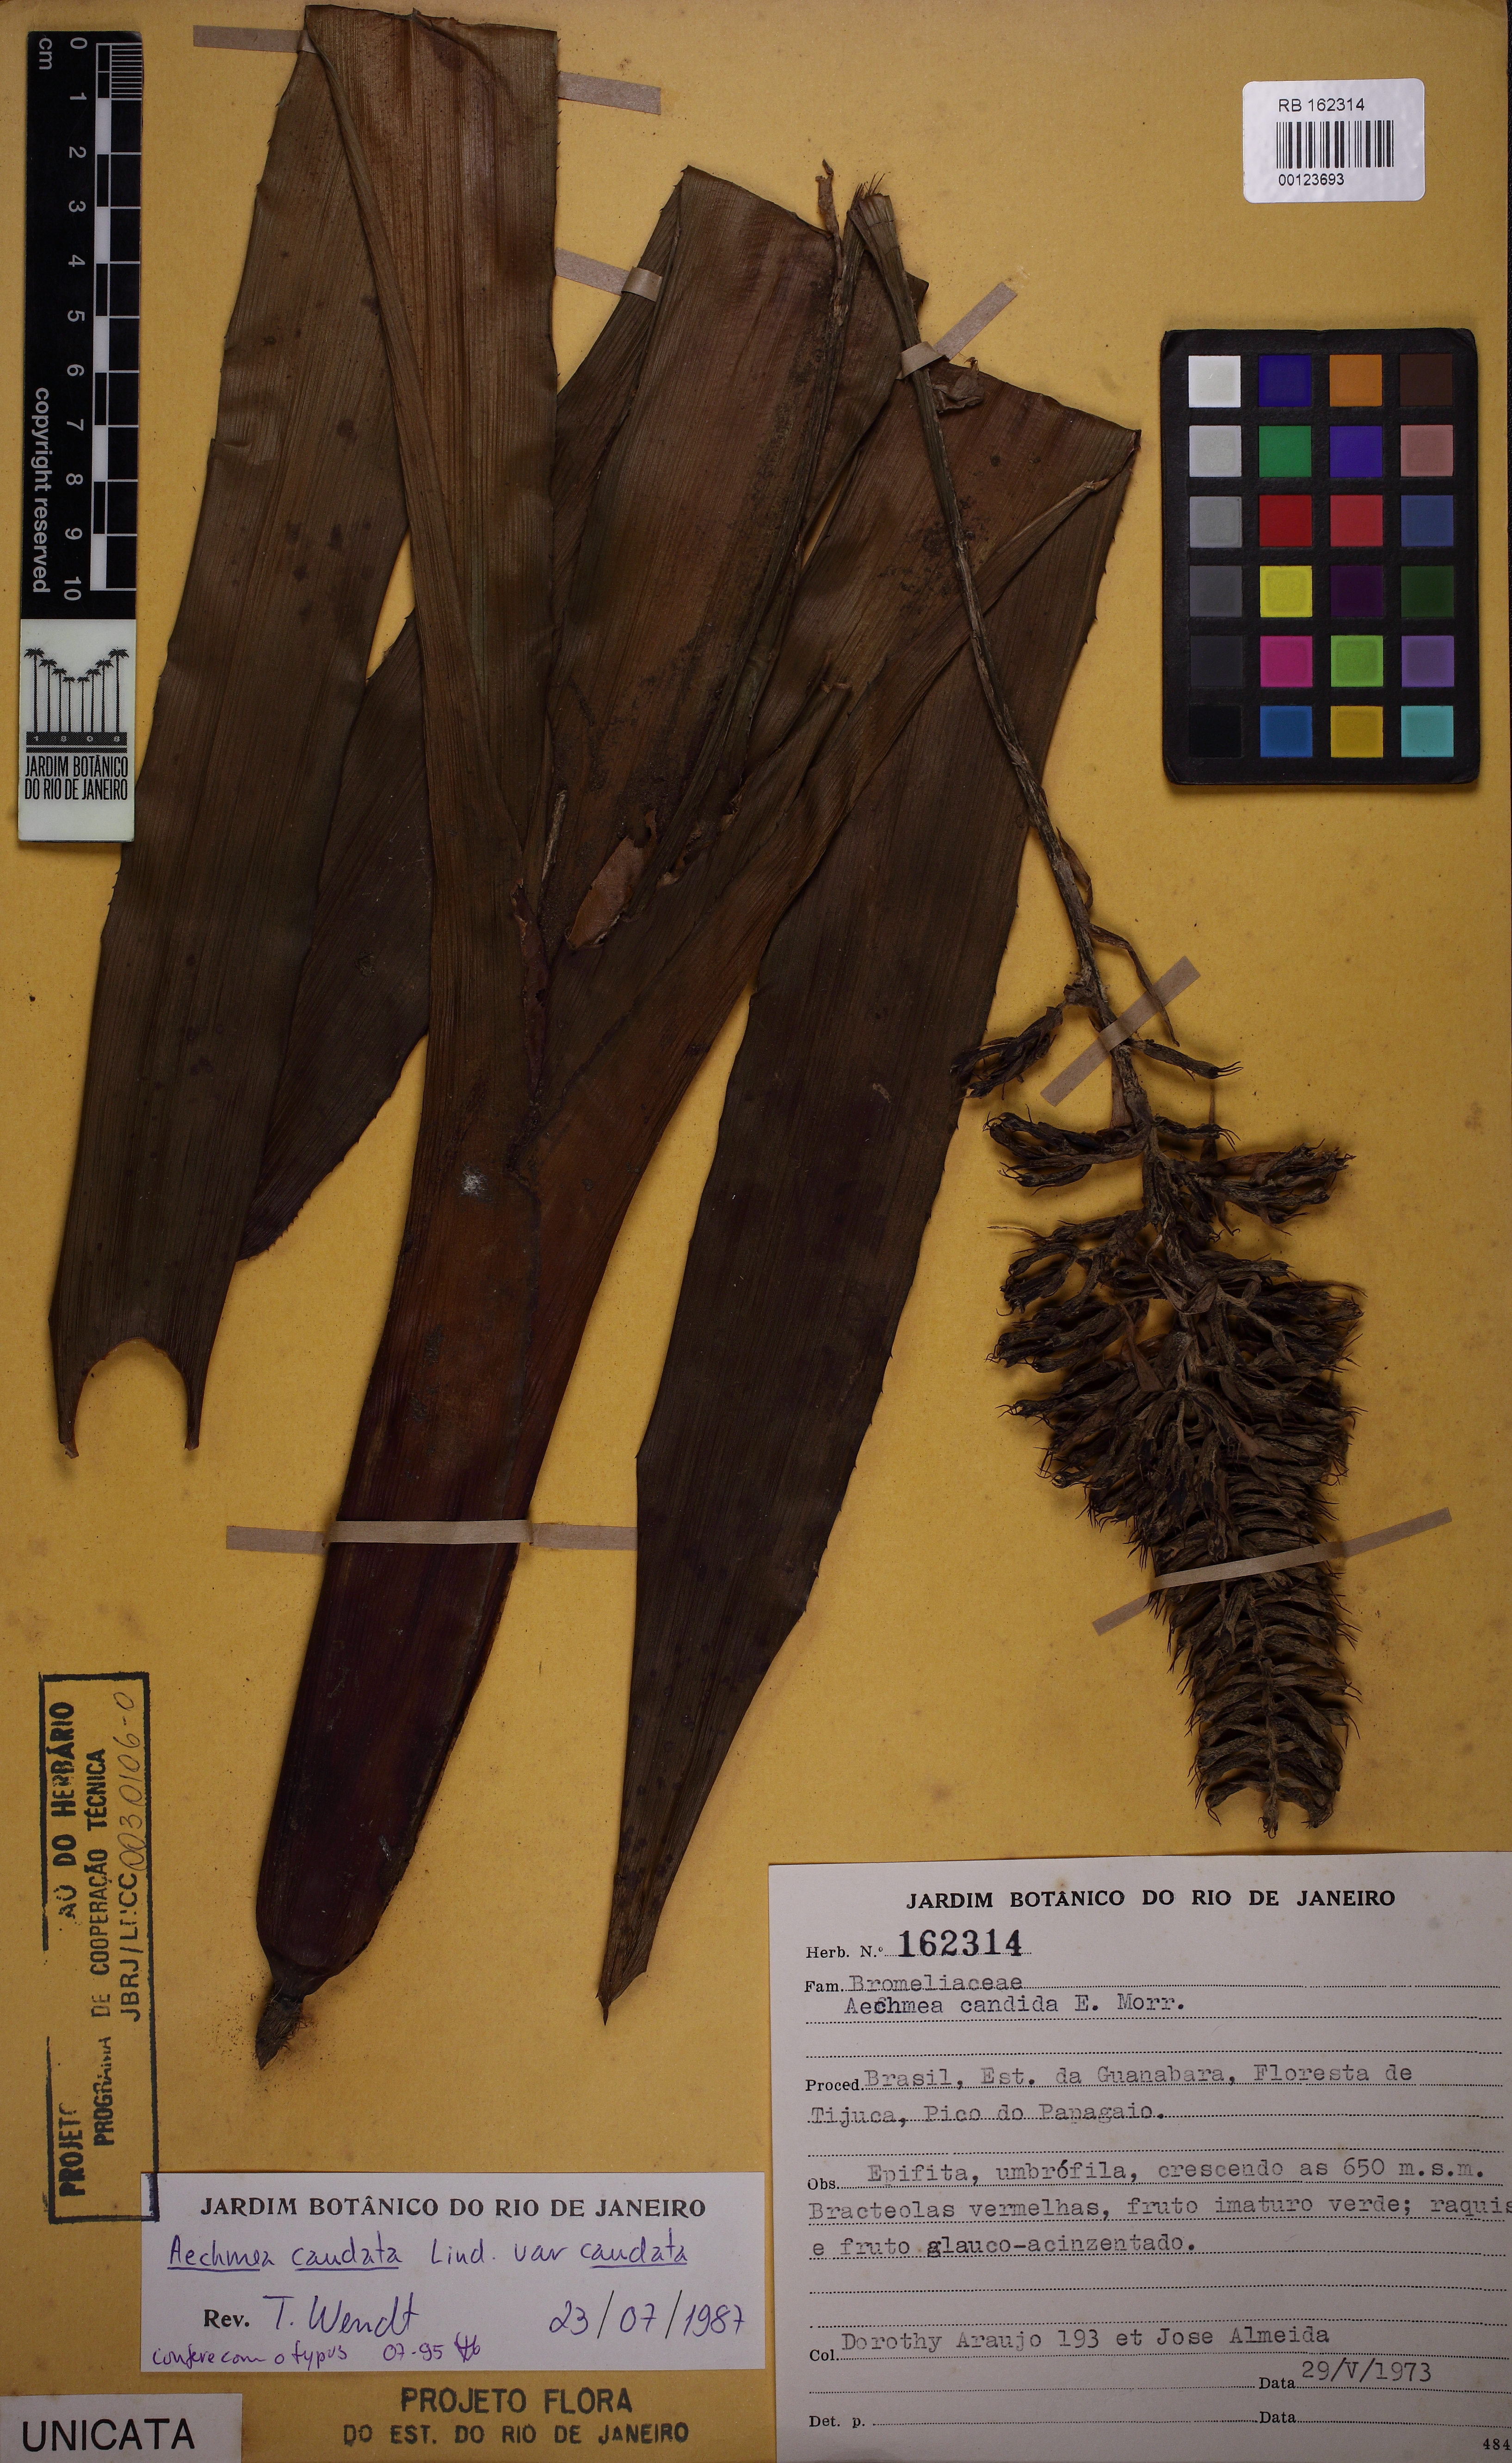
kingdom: Plantae
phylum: Tracheophyta
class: Liliopsida
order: Poales
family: Bromeliaceae
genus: Aechmea
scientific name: Aechmea coelestis
